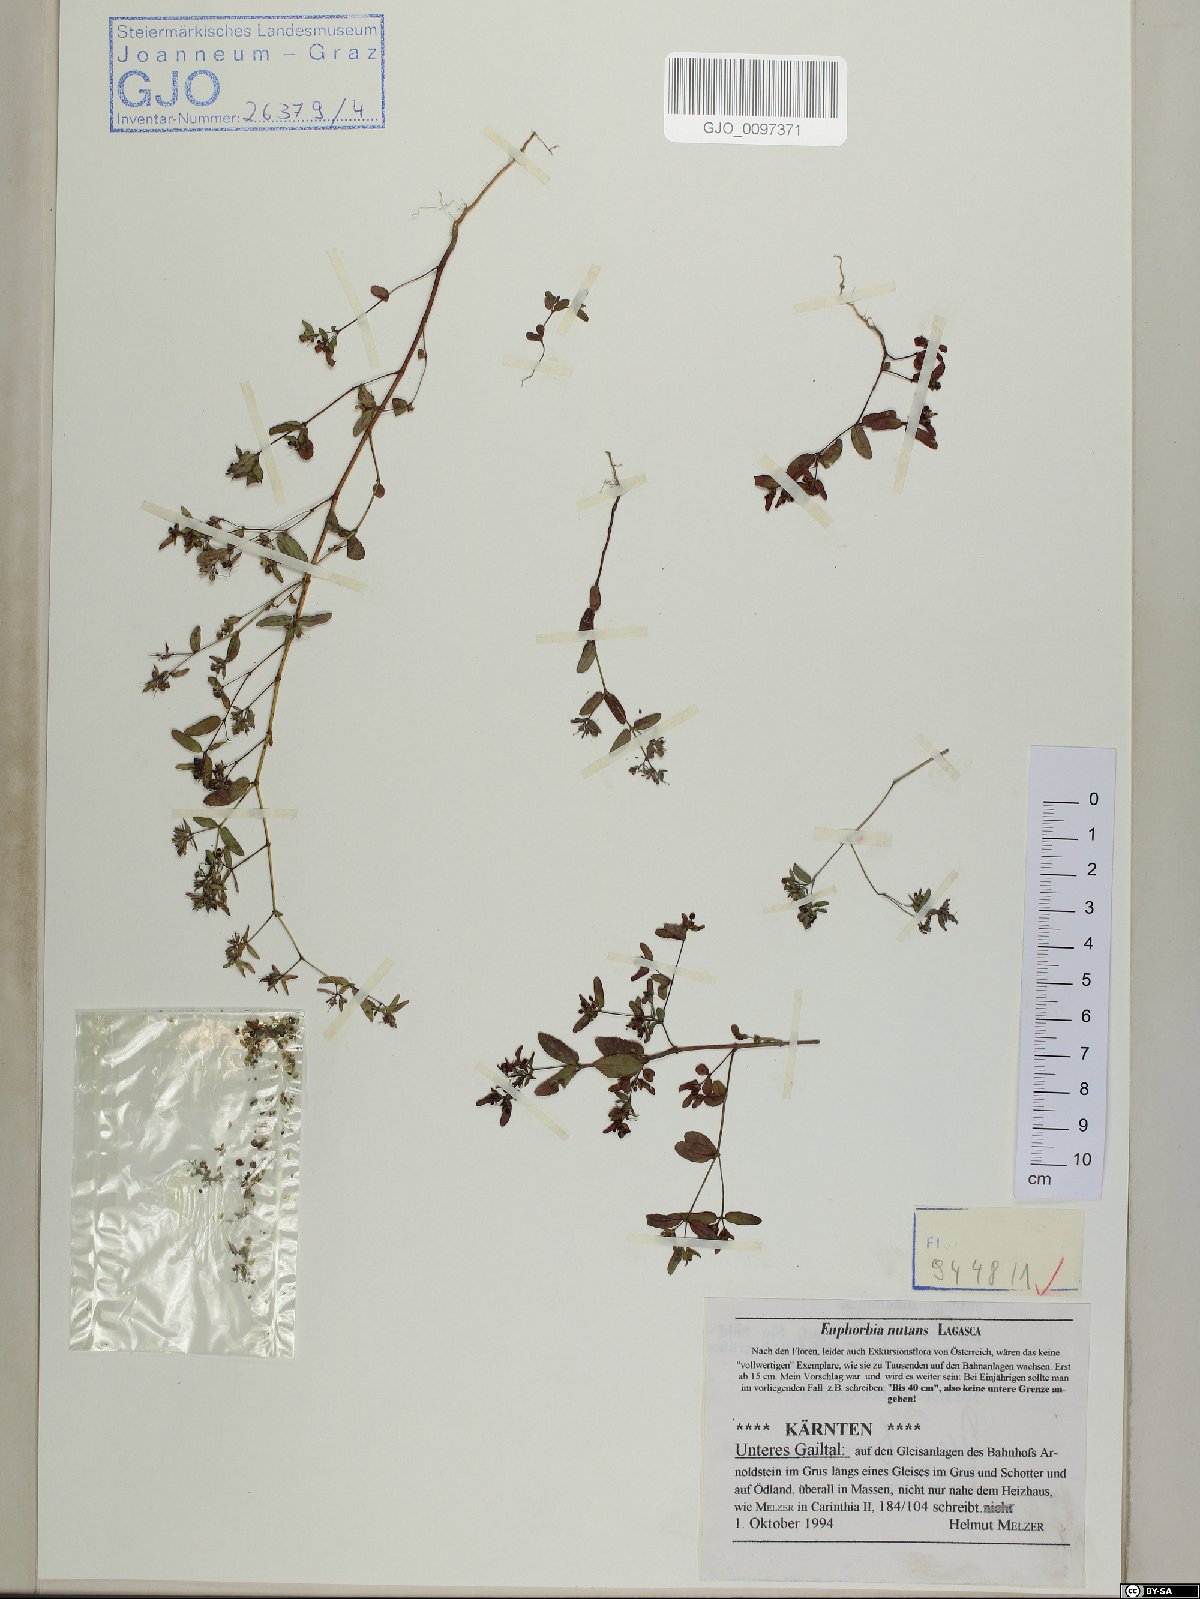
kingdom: Plantae
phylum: Tracheophyta
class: Magnoliopsida
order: Malpighiales
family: Euphorbiaceae
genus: Euphorbia
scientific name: Euphorbia nutans
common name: Eyebane
